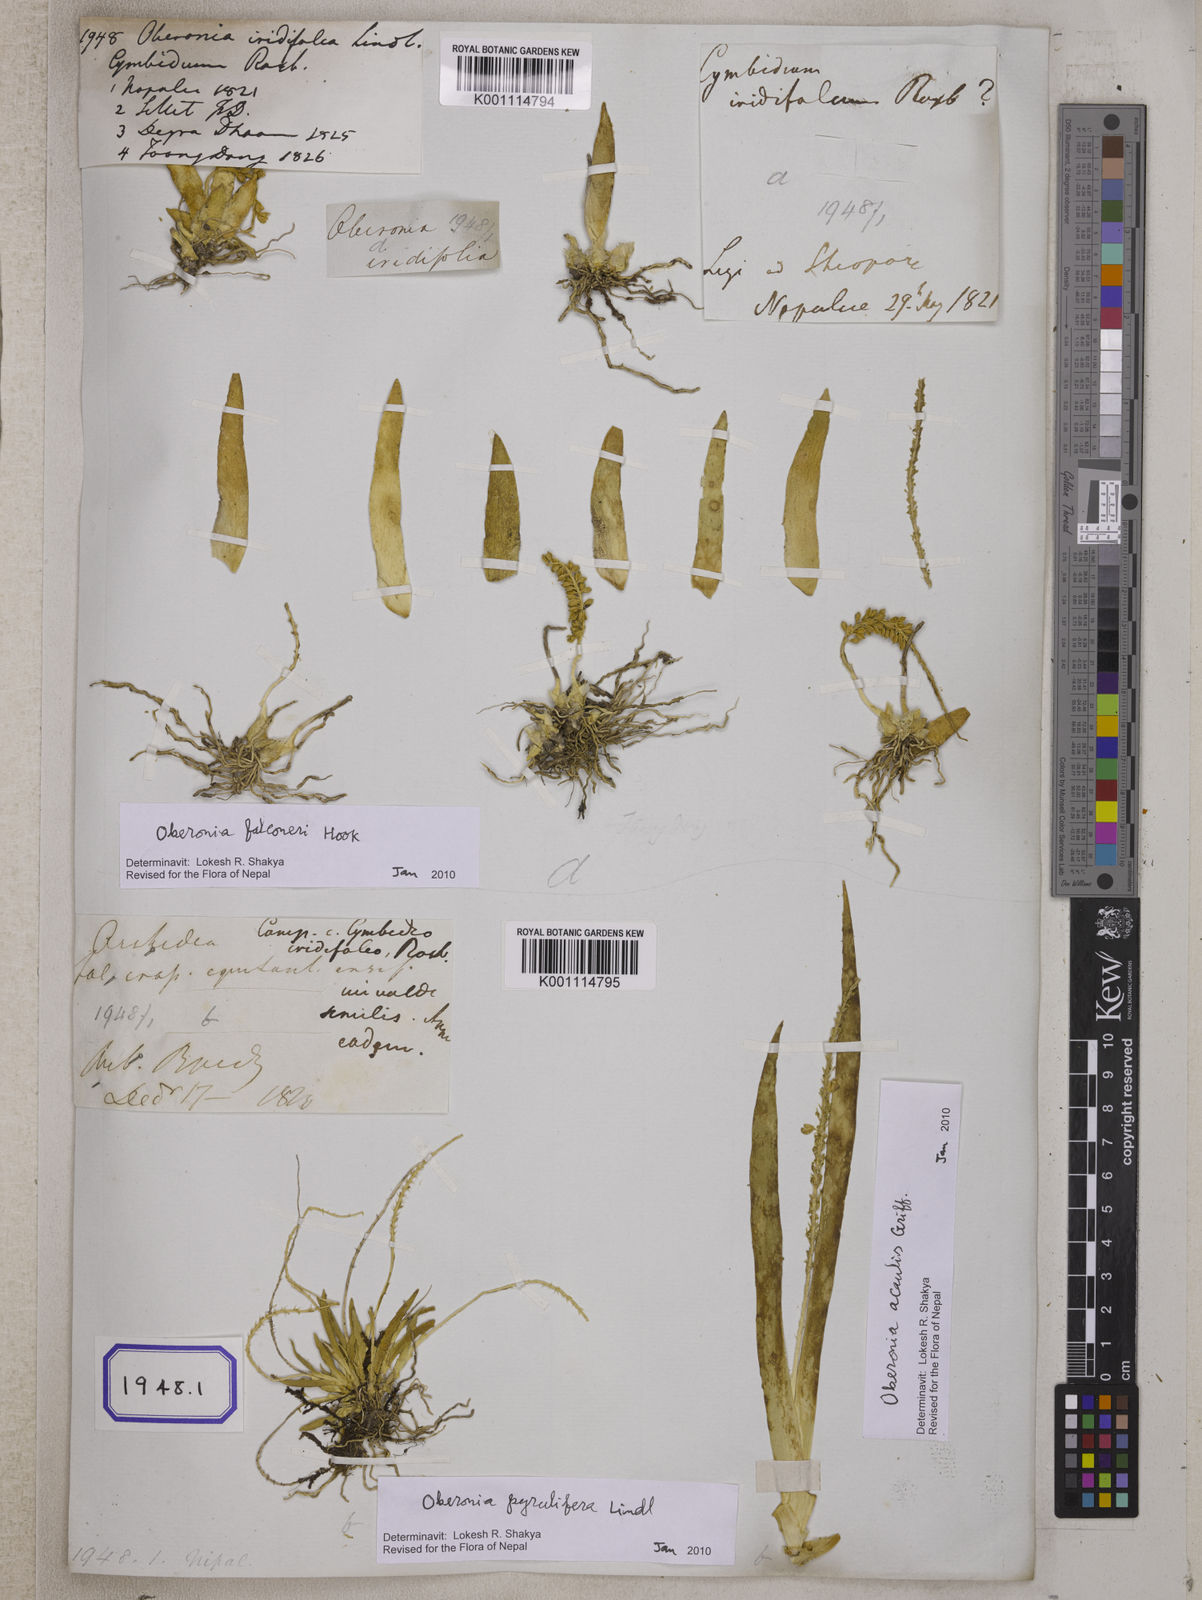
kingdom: Plantae
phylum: Tracheophyta
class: Liliopsida
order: Asparagales
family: Orchidaceae
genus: Oberonia
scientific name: Oberonia
